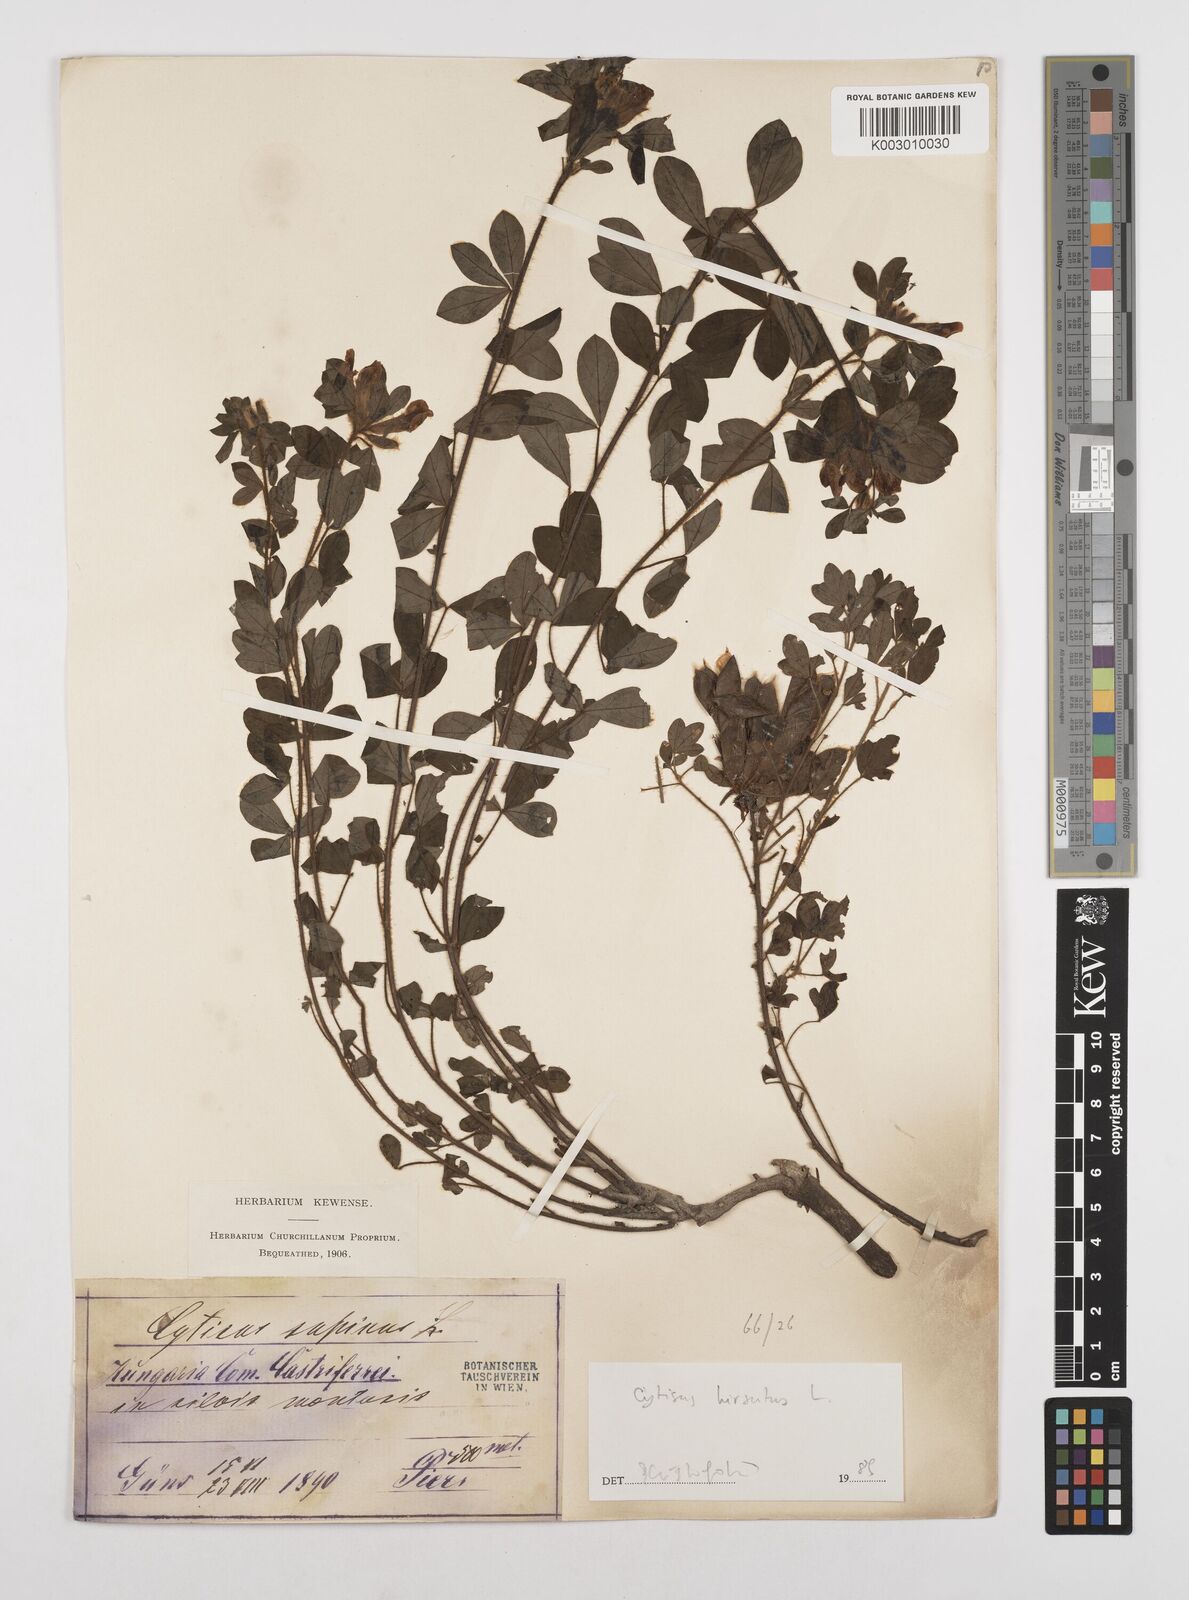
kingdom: Plantae
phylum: Tracheophyta
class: Magnoliopsida
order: Fabales
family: Fabaceae
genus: Chamaecytisus
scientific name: Chamaecytisus hirsutus
